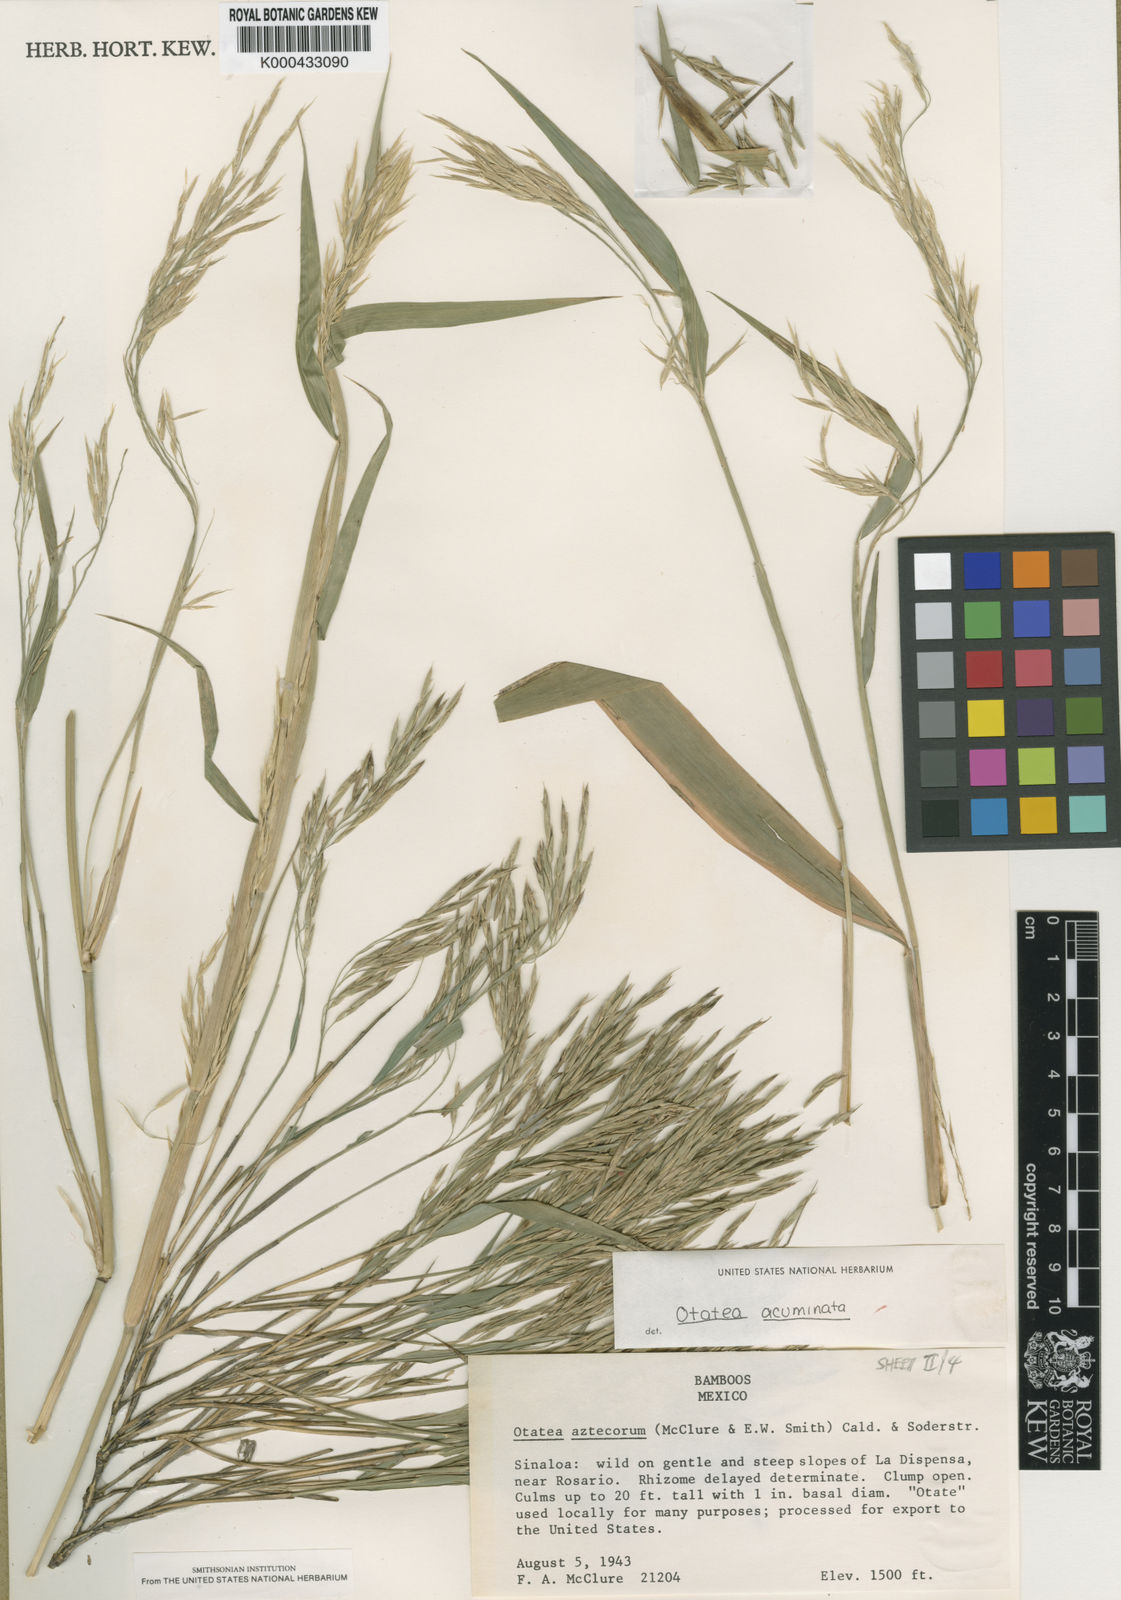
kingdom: Plantae
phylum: Tracheophyta
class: Liliopsida
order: Poales
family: Poaceae
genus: Otatea
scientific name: Otatea acuminata
